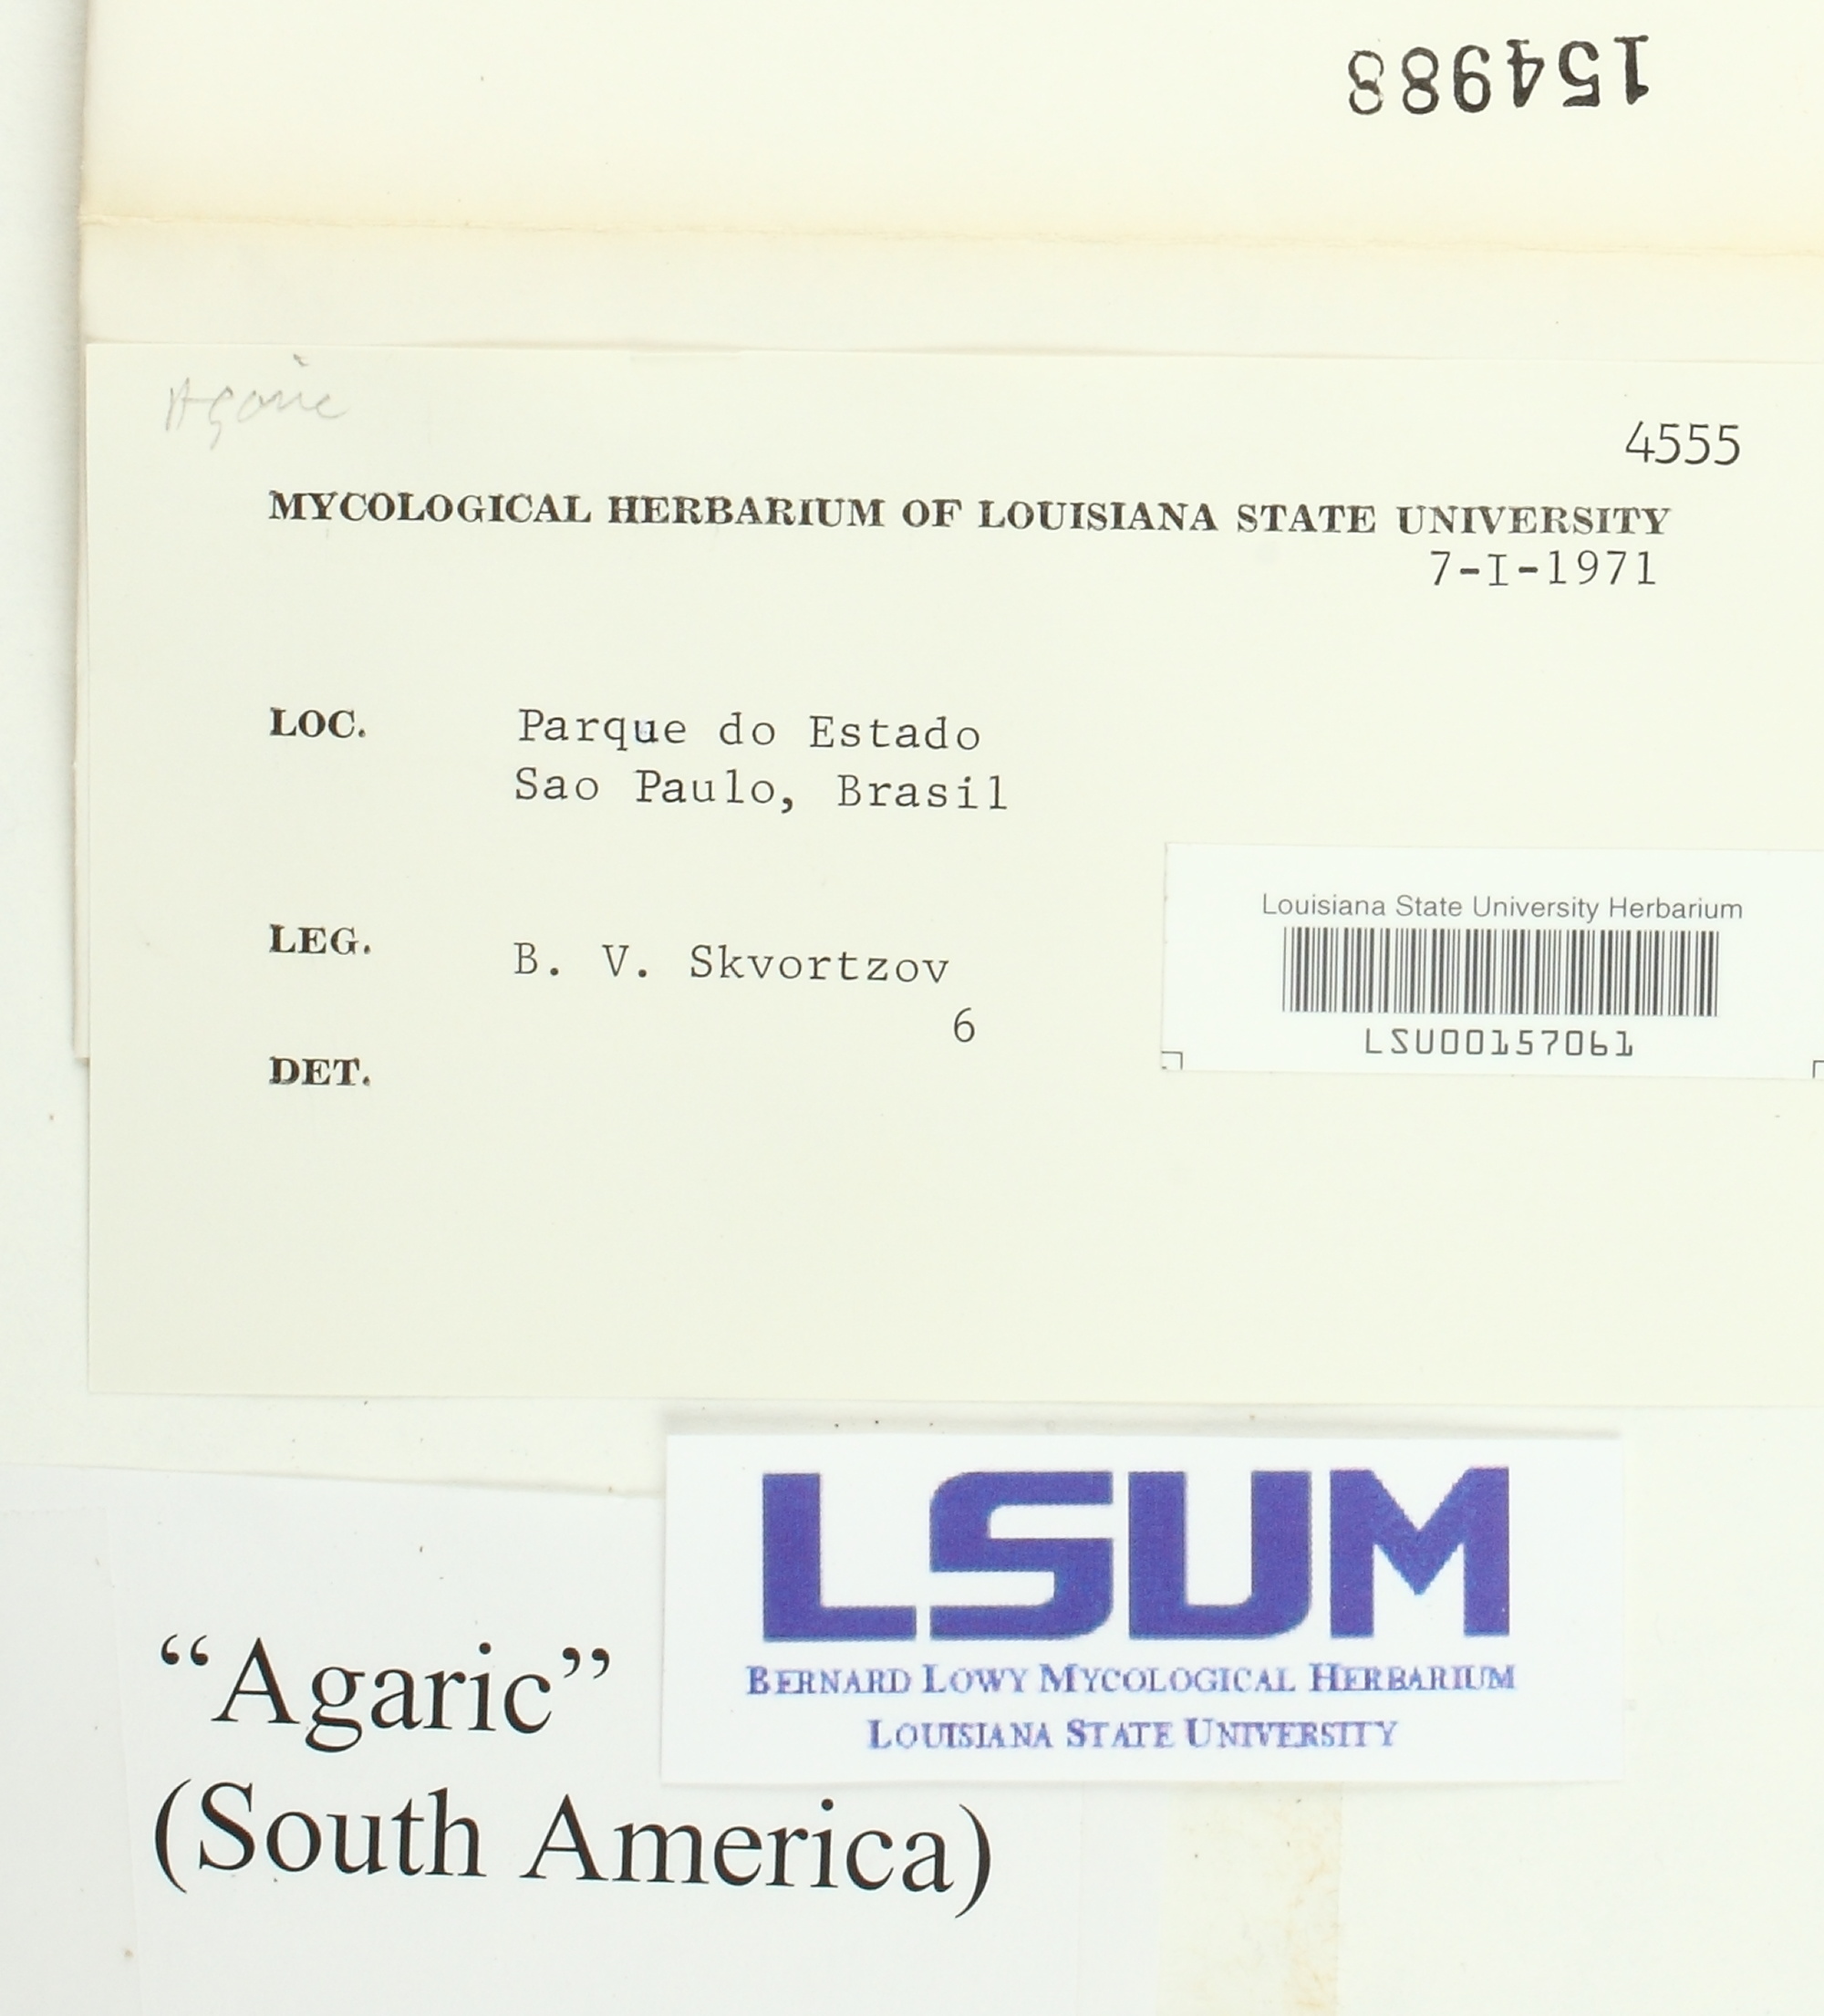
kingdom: Fungi
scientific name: Fungi
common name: Fungi
